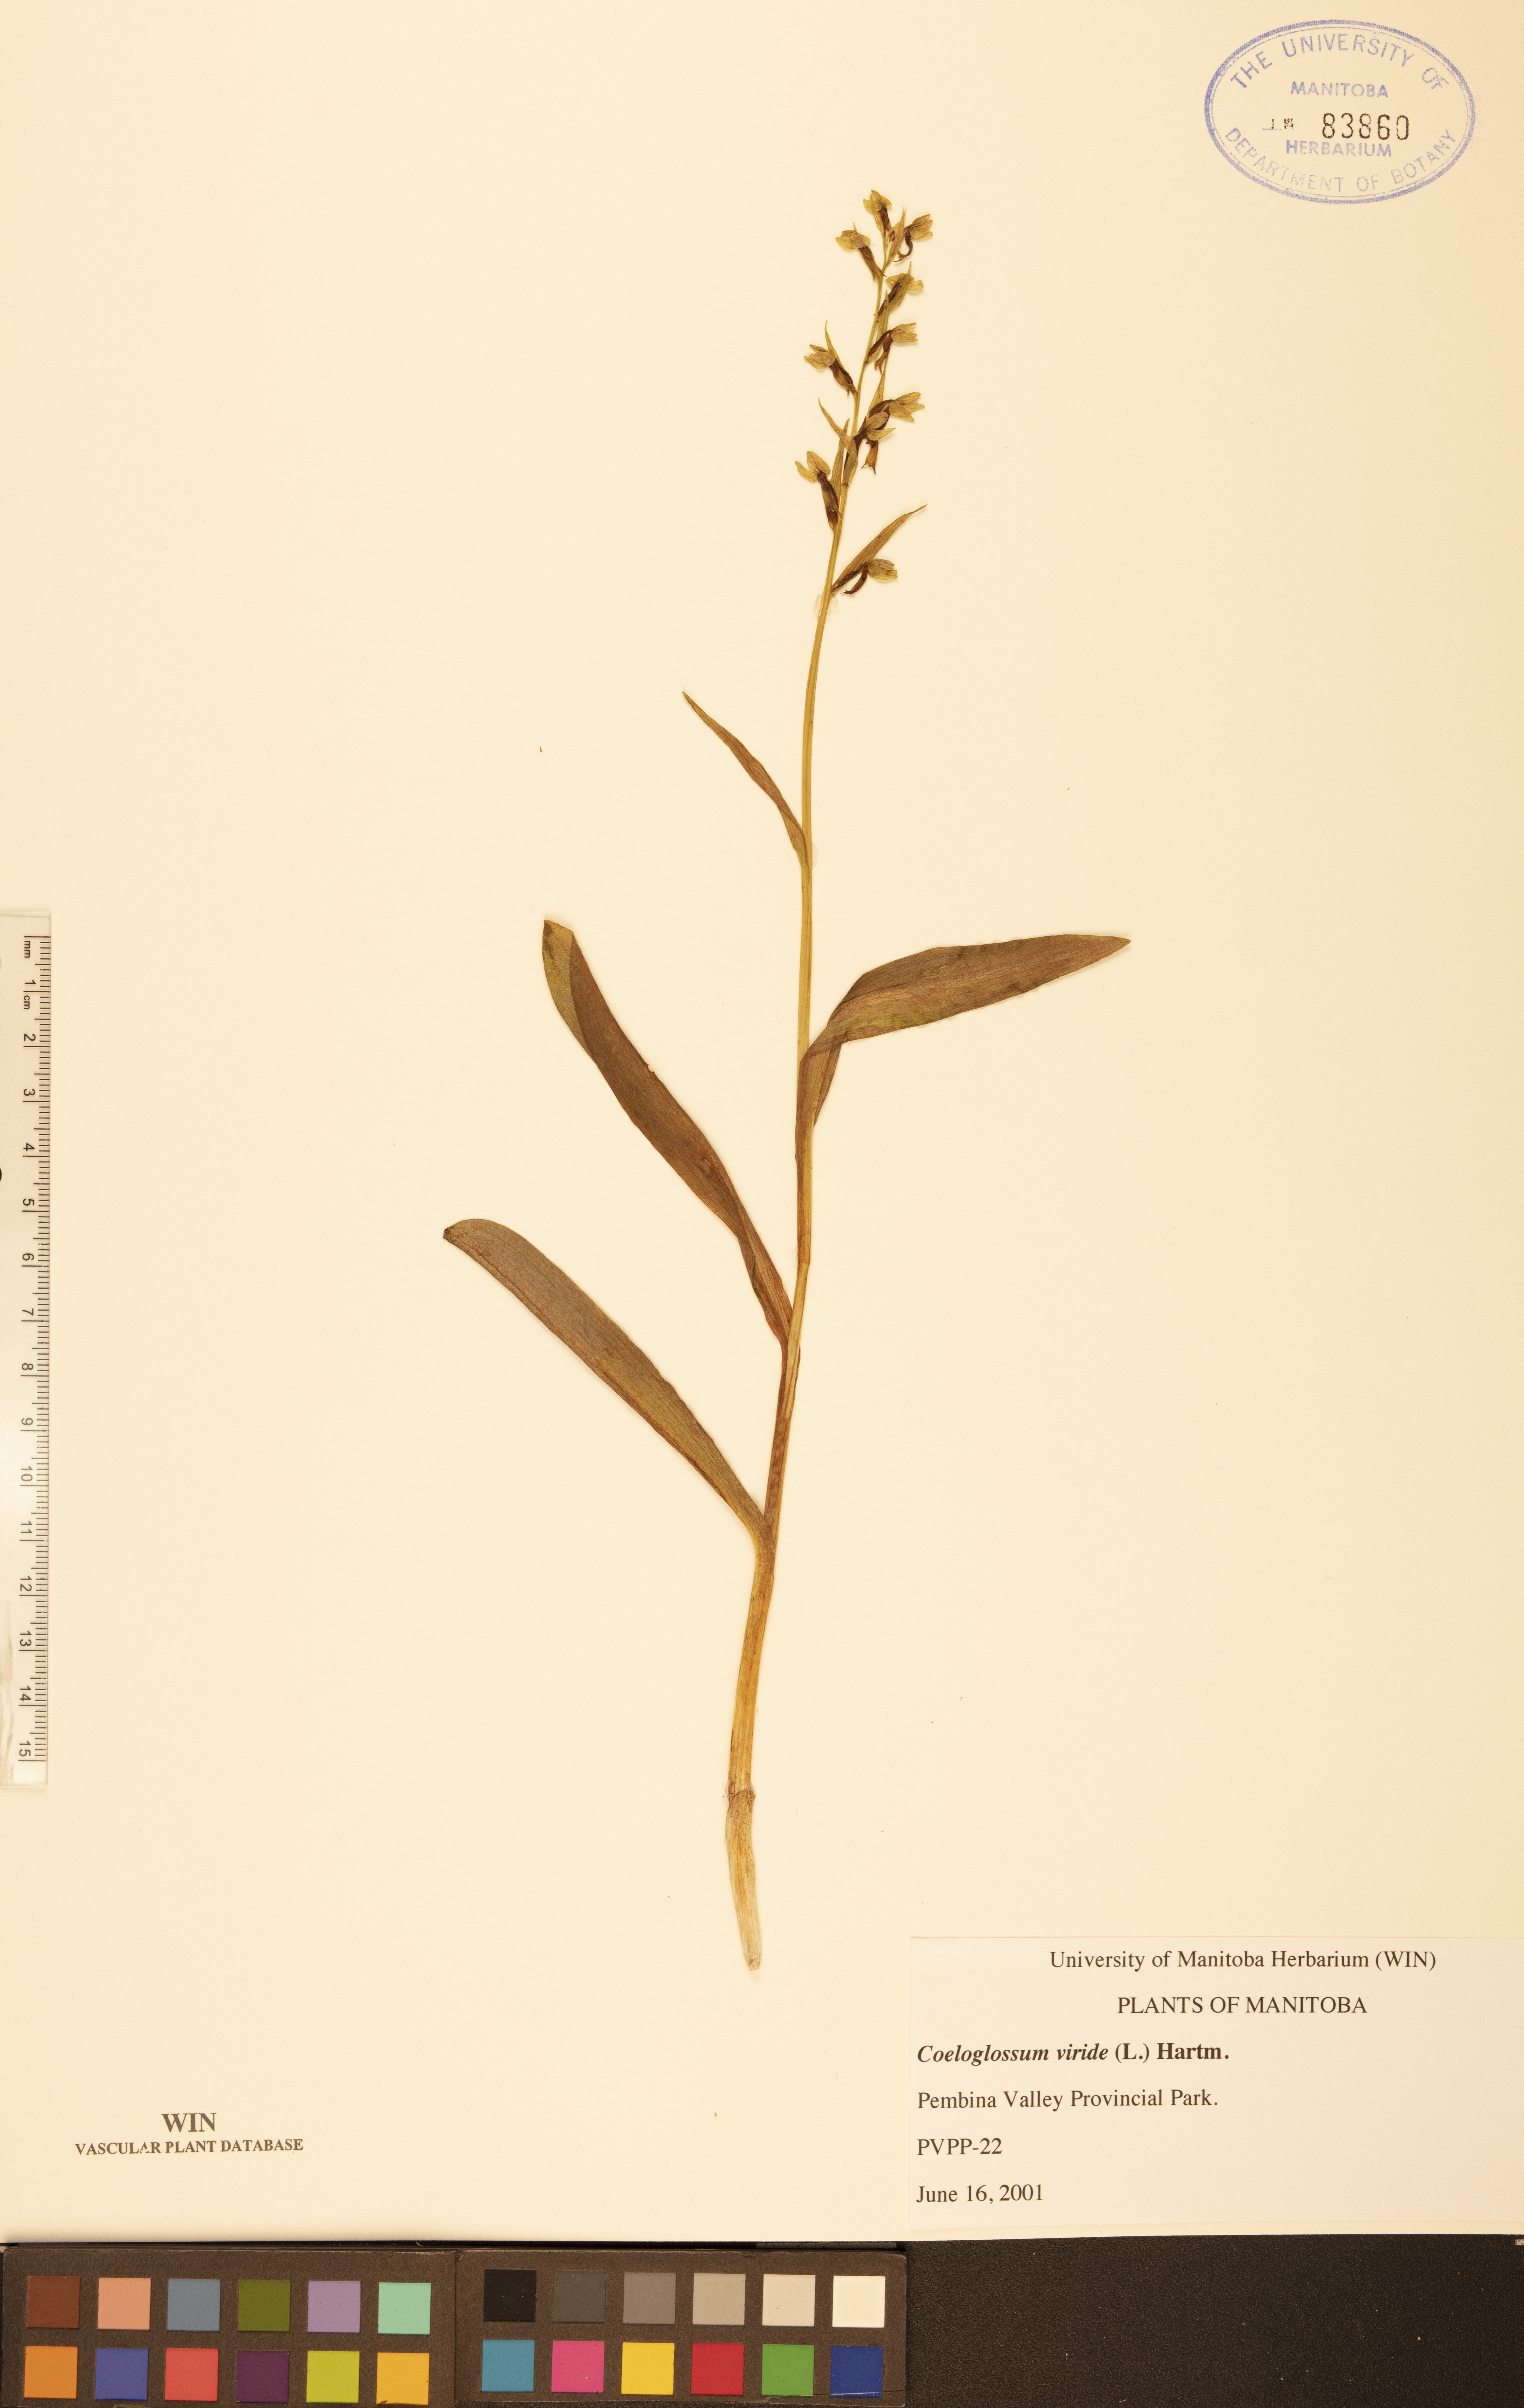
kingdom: Plantae
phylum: Tracheophyta
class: Liliopsida
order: Asparagales
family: Orchidaceae
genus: Dactylorhiza
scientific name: Dactylorhiza viridis
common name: Longbract frog orchid
